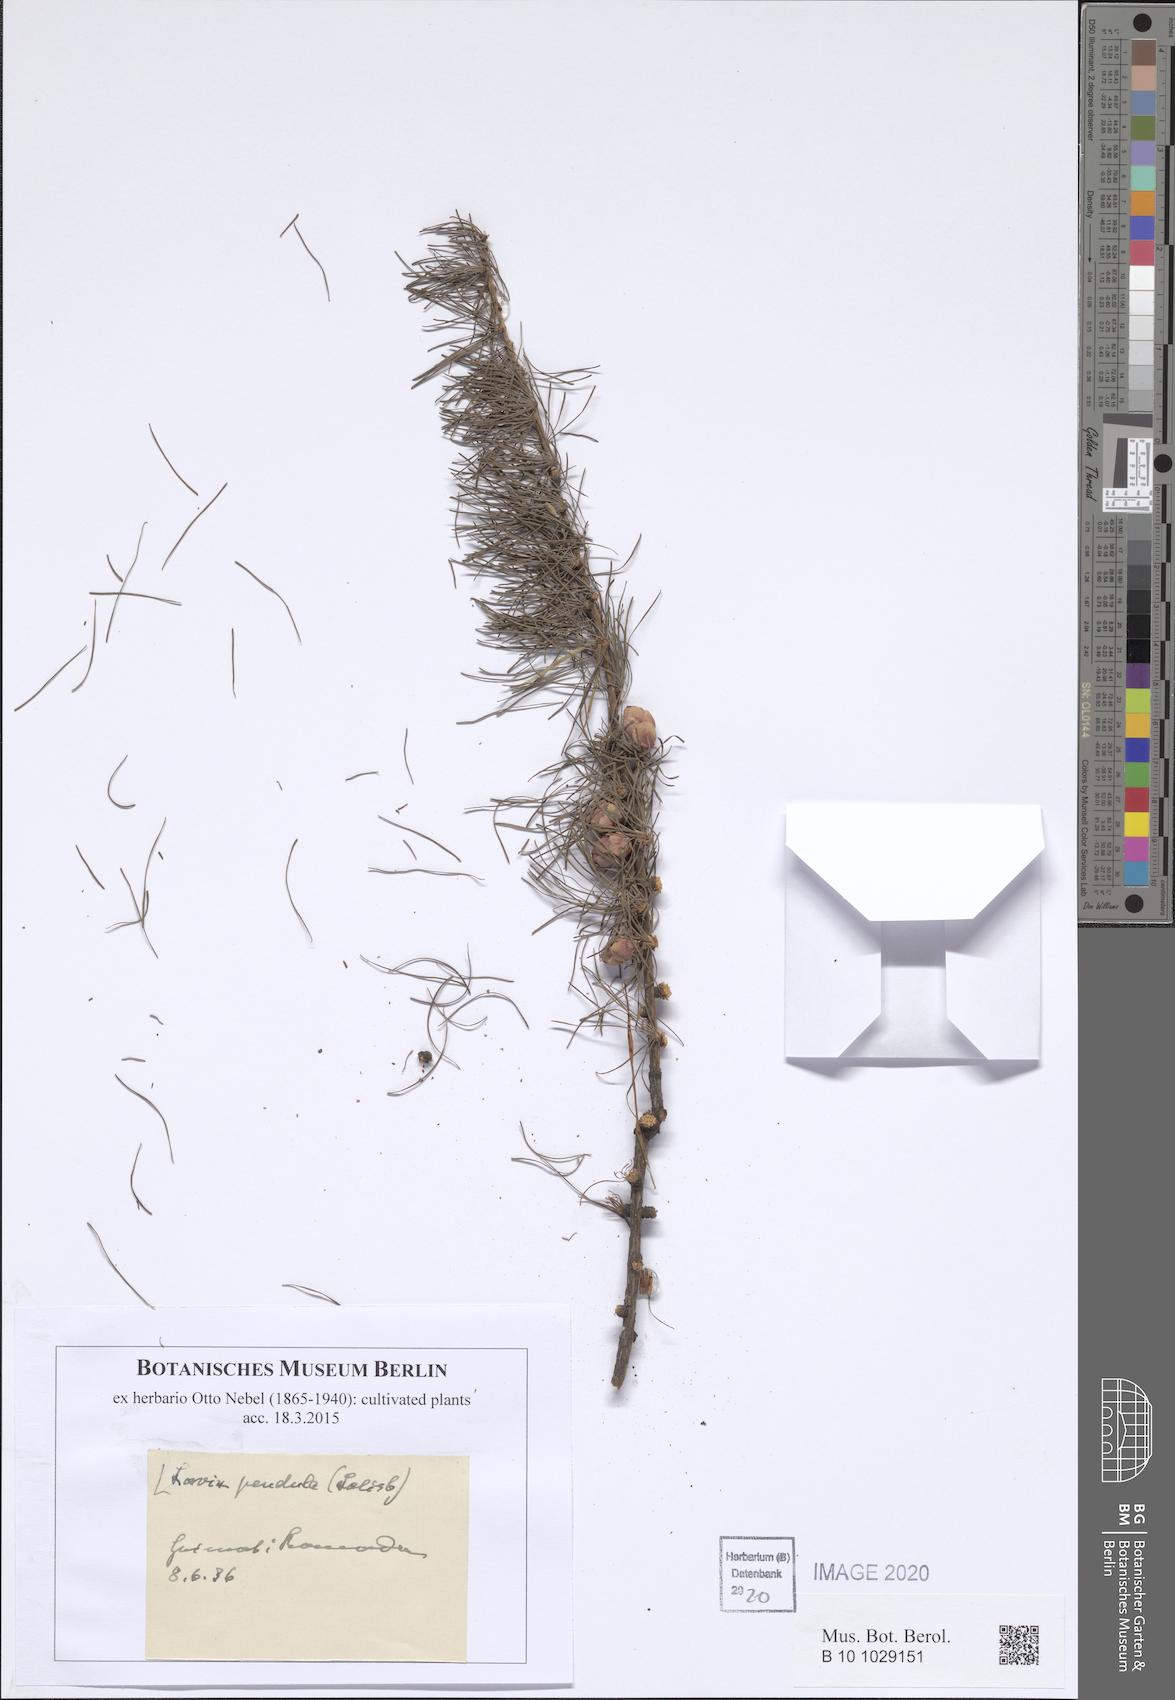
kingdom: Plantae
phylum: Tracheophyta
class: Pinopsida
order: Pinales
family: Pinaceae
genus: Larix
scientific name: Larix laricina
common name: American larch
